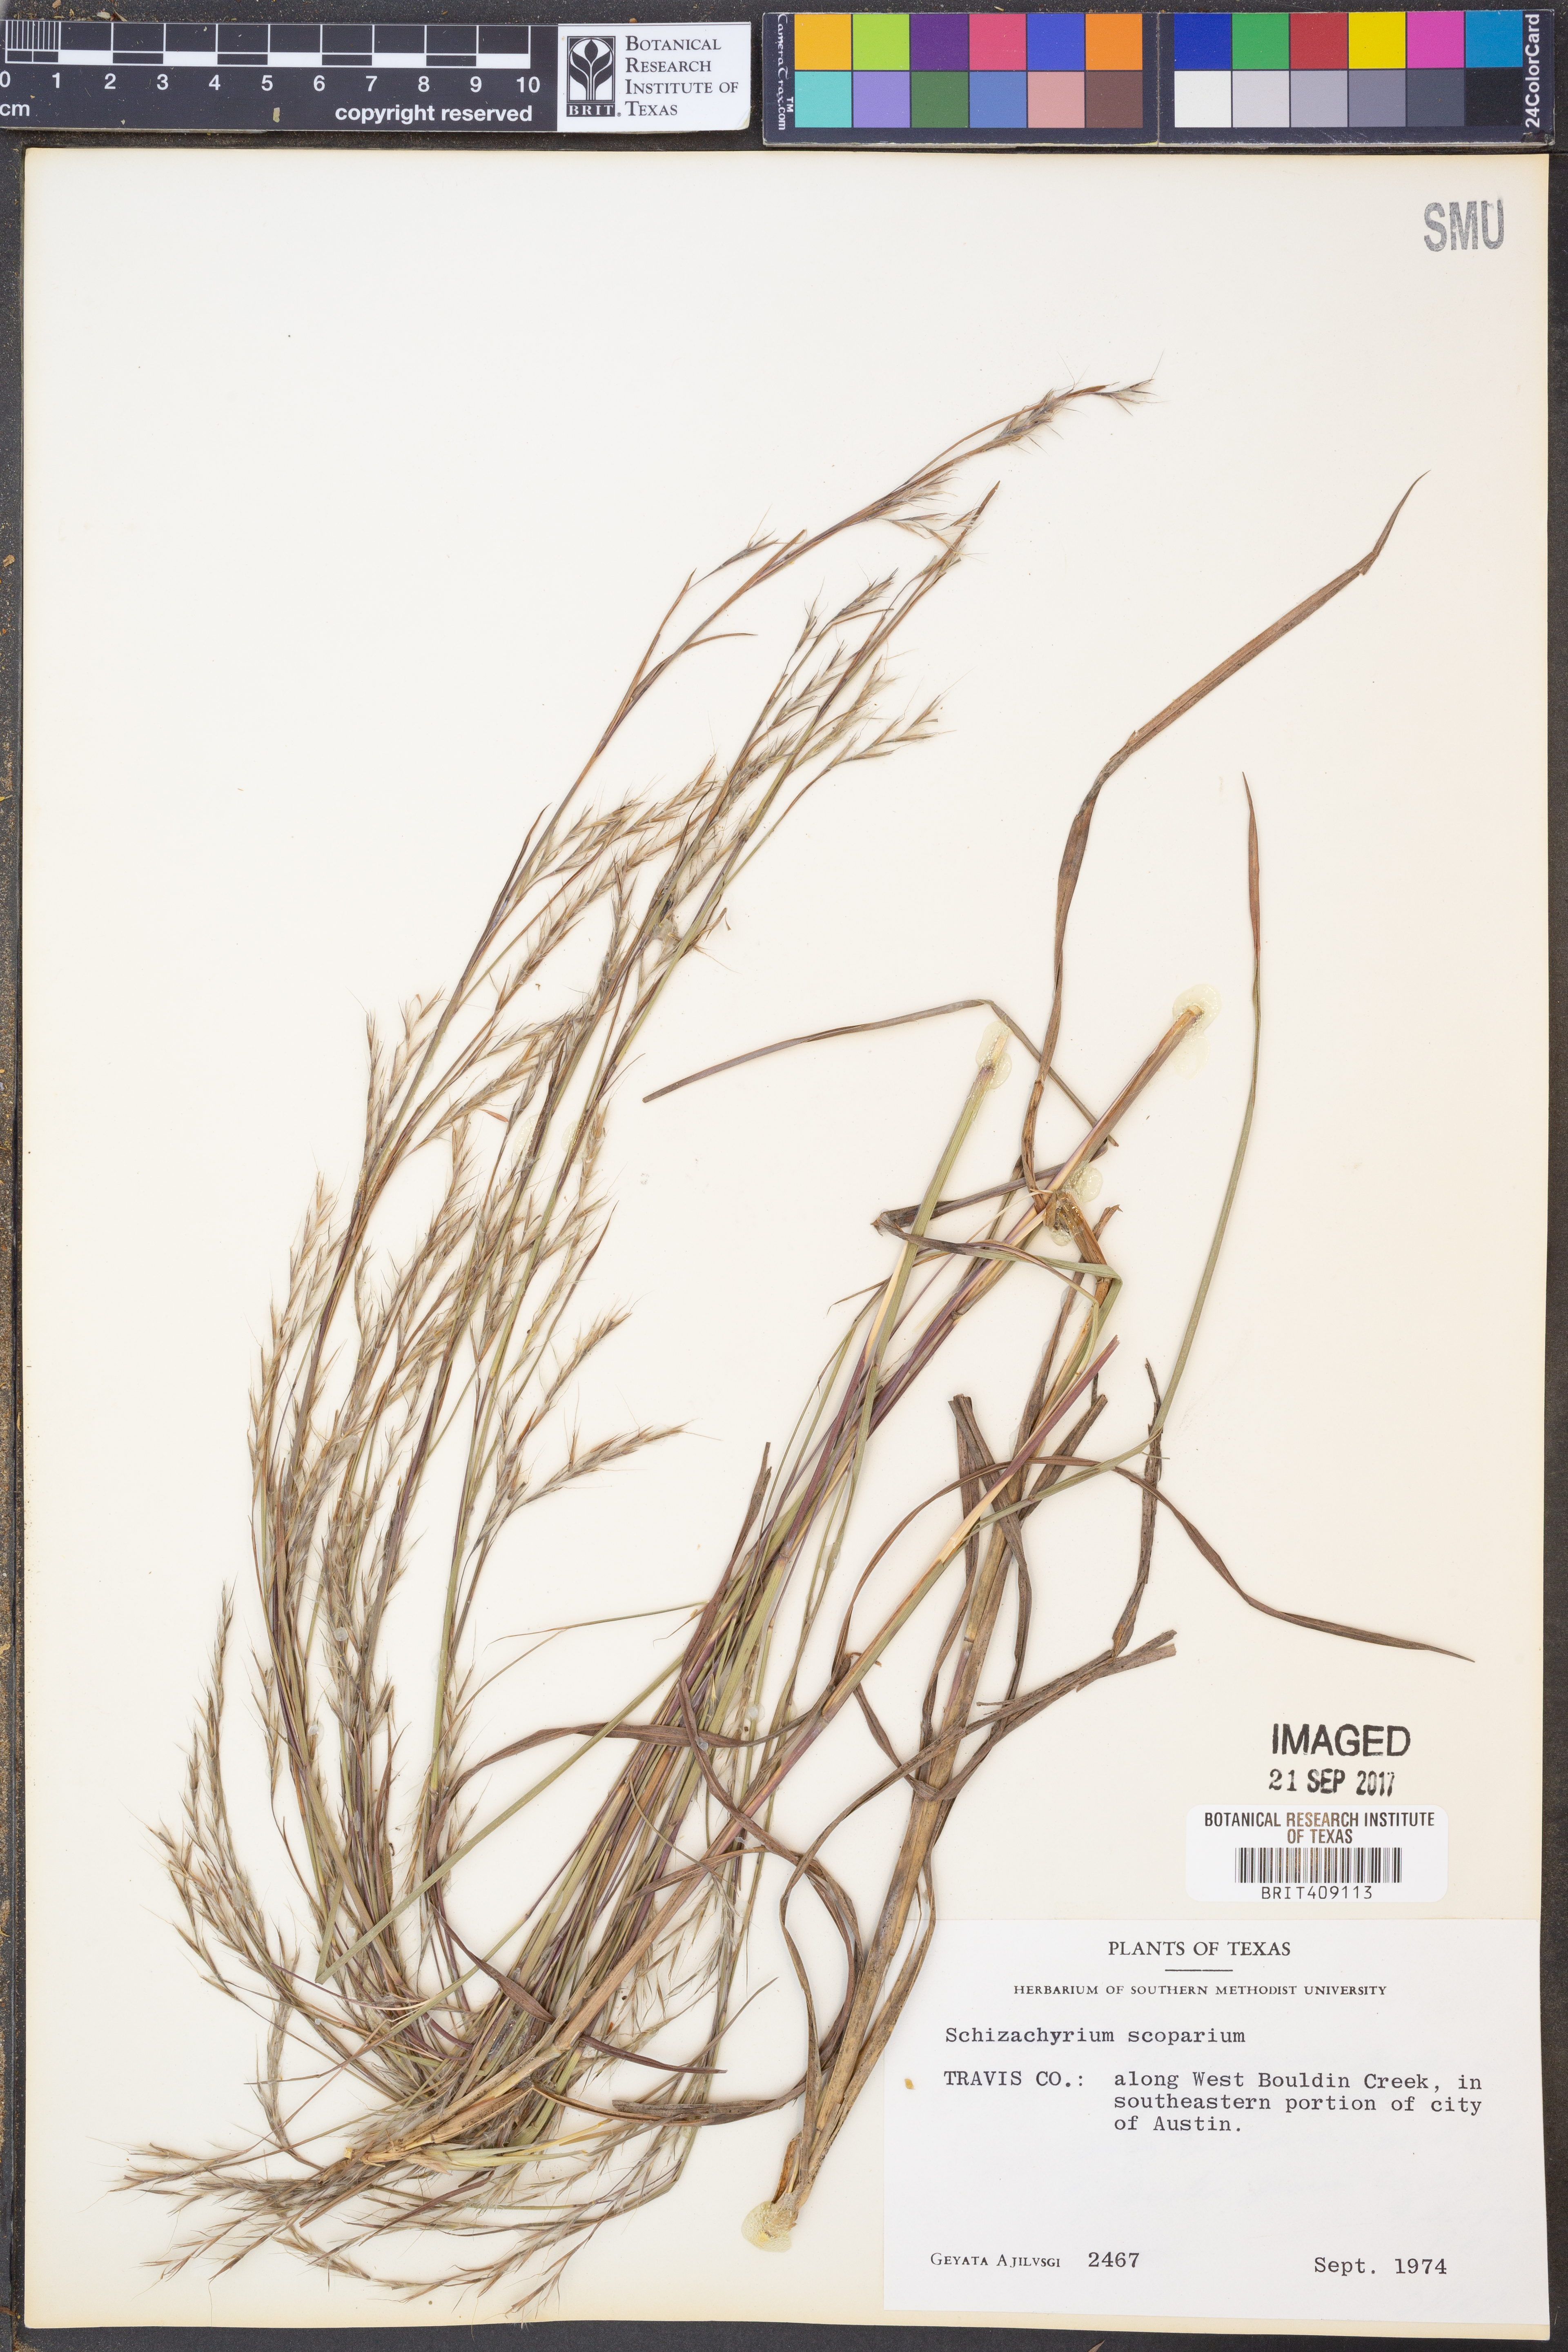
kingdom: Plantae
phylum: Tracheophyta
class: Liliopsida
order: Poales
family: Poaceae
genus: Schizachyrium
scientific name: Schizachyrium scoparium
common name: Little bluestem
